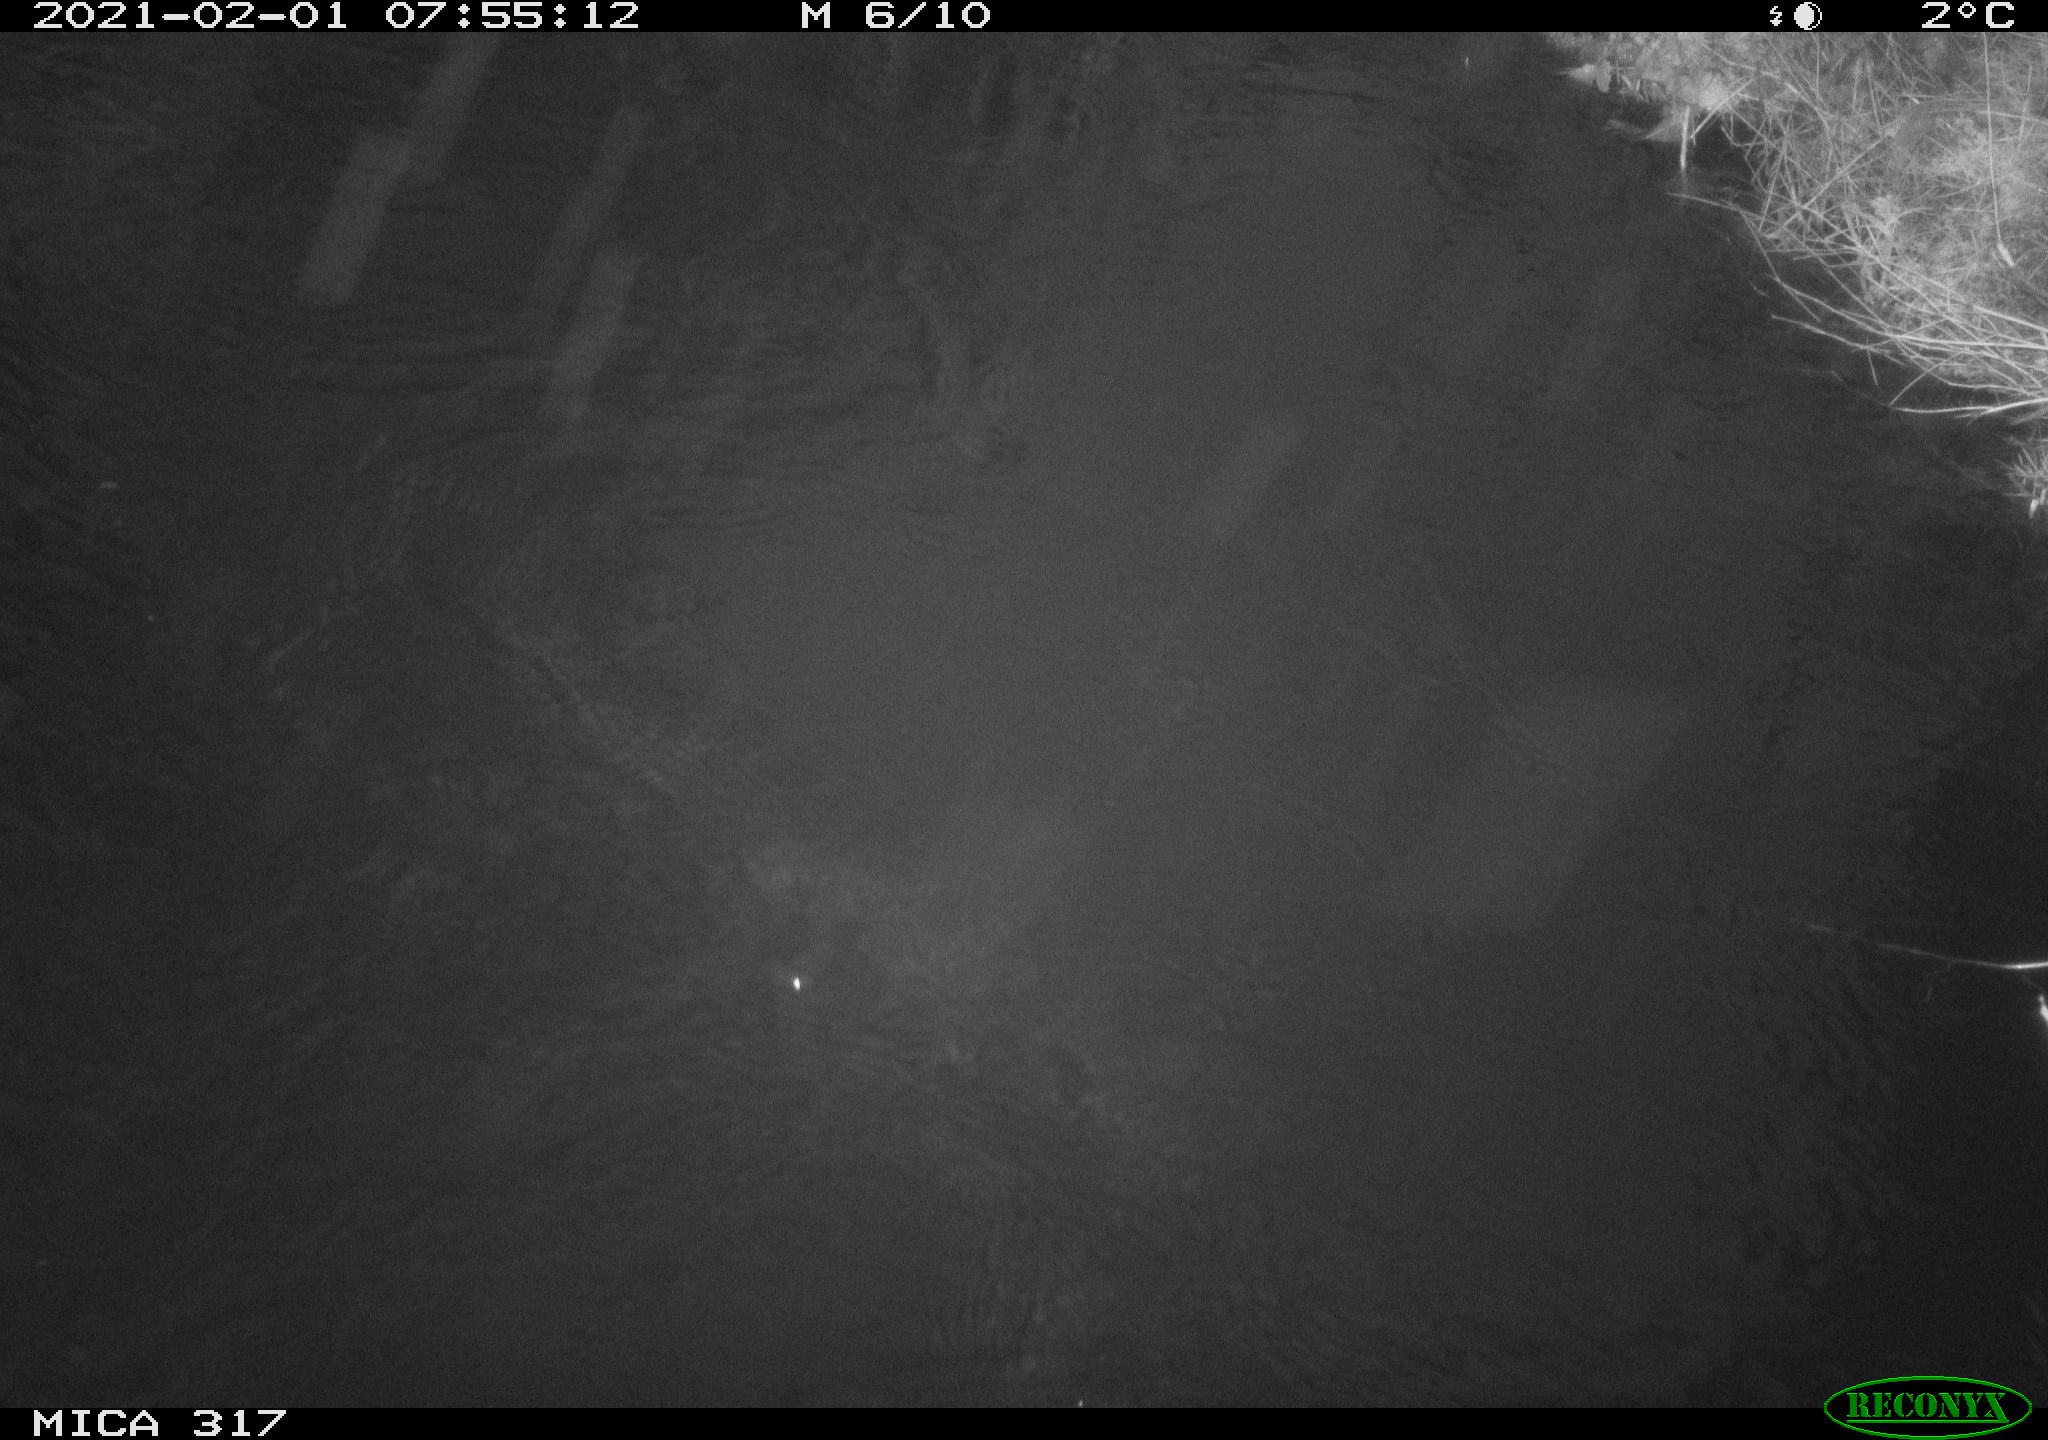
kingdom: Animalia
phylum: Chordata
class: Aves
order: Gruiformes
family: Rallidae
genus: Fulica
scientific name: Fulica atra
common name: Eurasian coot
